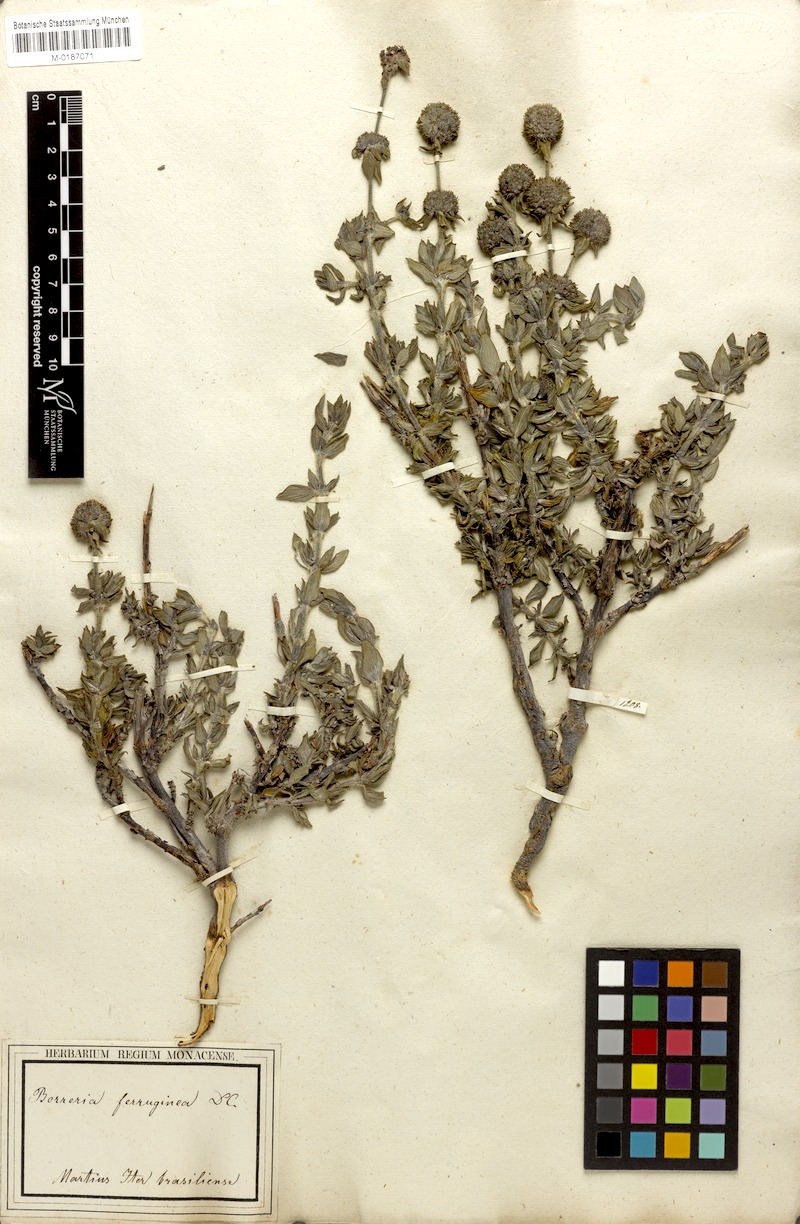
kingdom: Plantae
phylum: Tracheophyta
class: Magnoliopsida
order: Gentianales
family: Rubiaceae
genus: Spermacoce
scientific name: Spermacoce capitata
